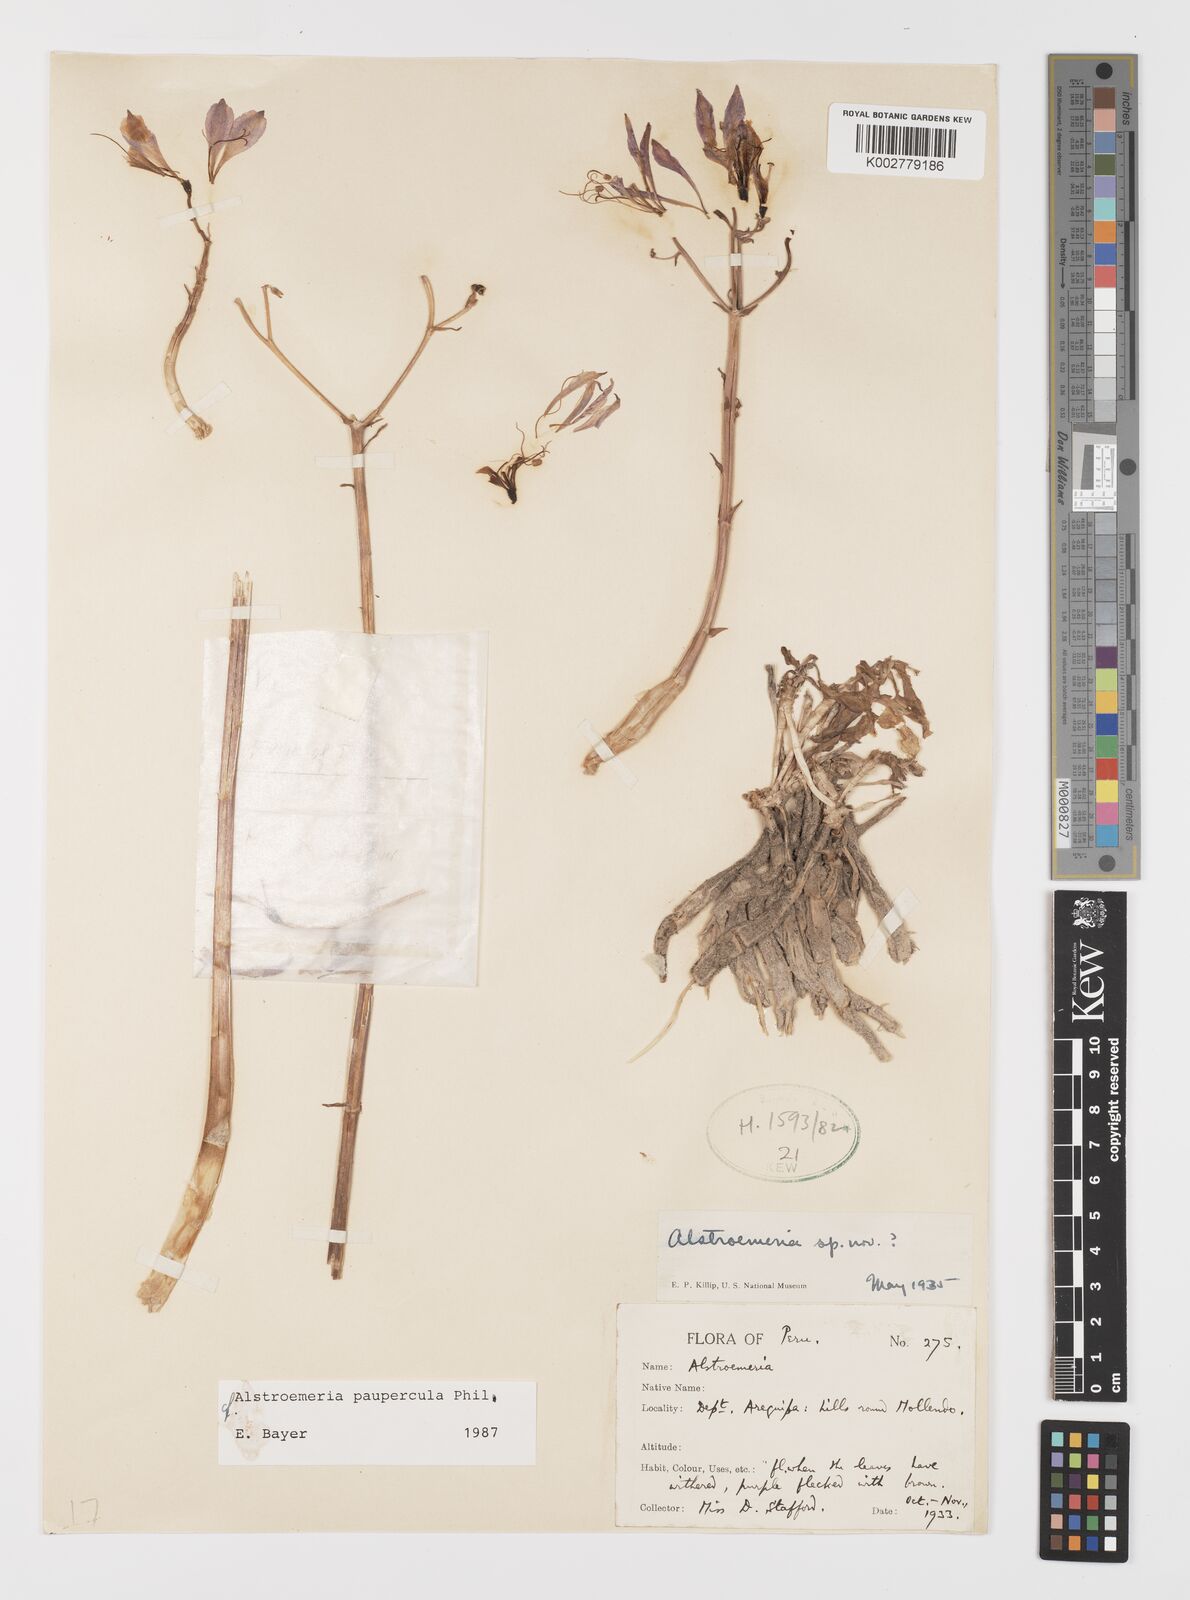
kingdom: Plantae
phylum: Tracheophyta
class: Liliopsida
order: Liliales
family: Alstroemeriaceae
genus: Alstroemeria
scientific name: Alstroemeria paupercula
